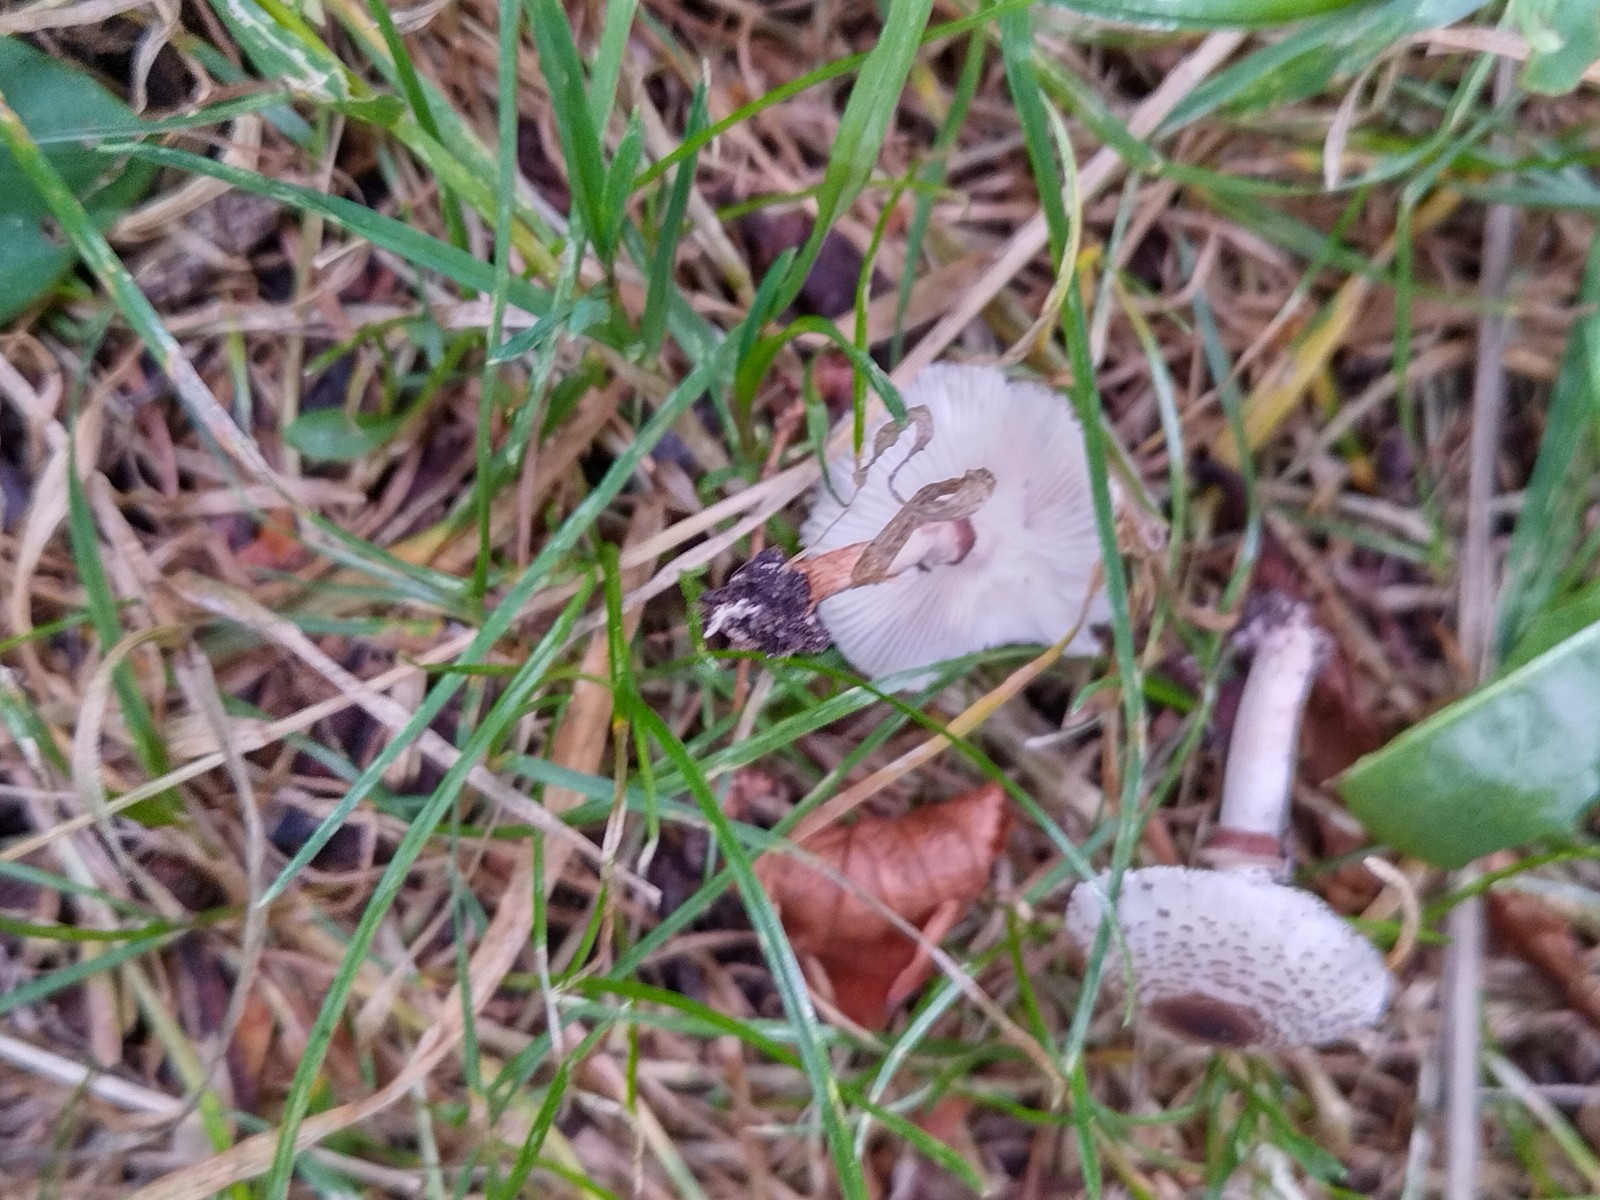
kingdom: Fungi
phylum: Basidiomycota
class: Agaricomycetes
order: Agaricales
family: Agaricaceae
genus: Lepiota
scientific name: Lepiota lilacea
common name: lillabrun parasolhat
